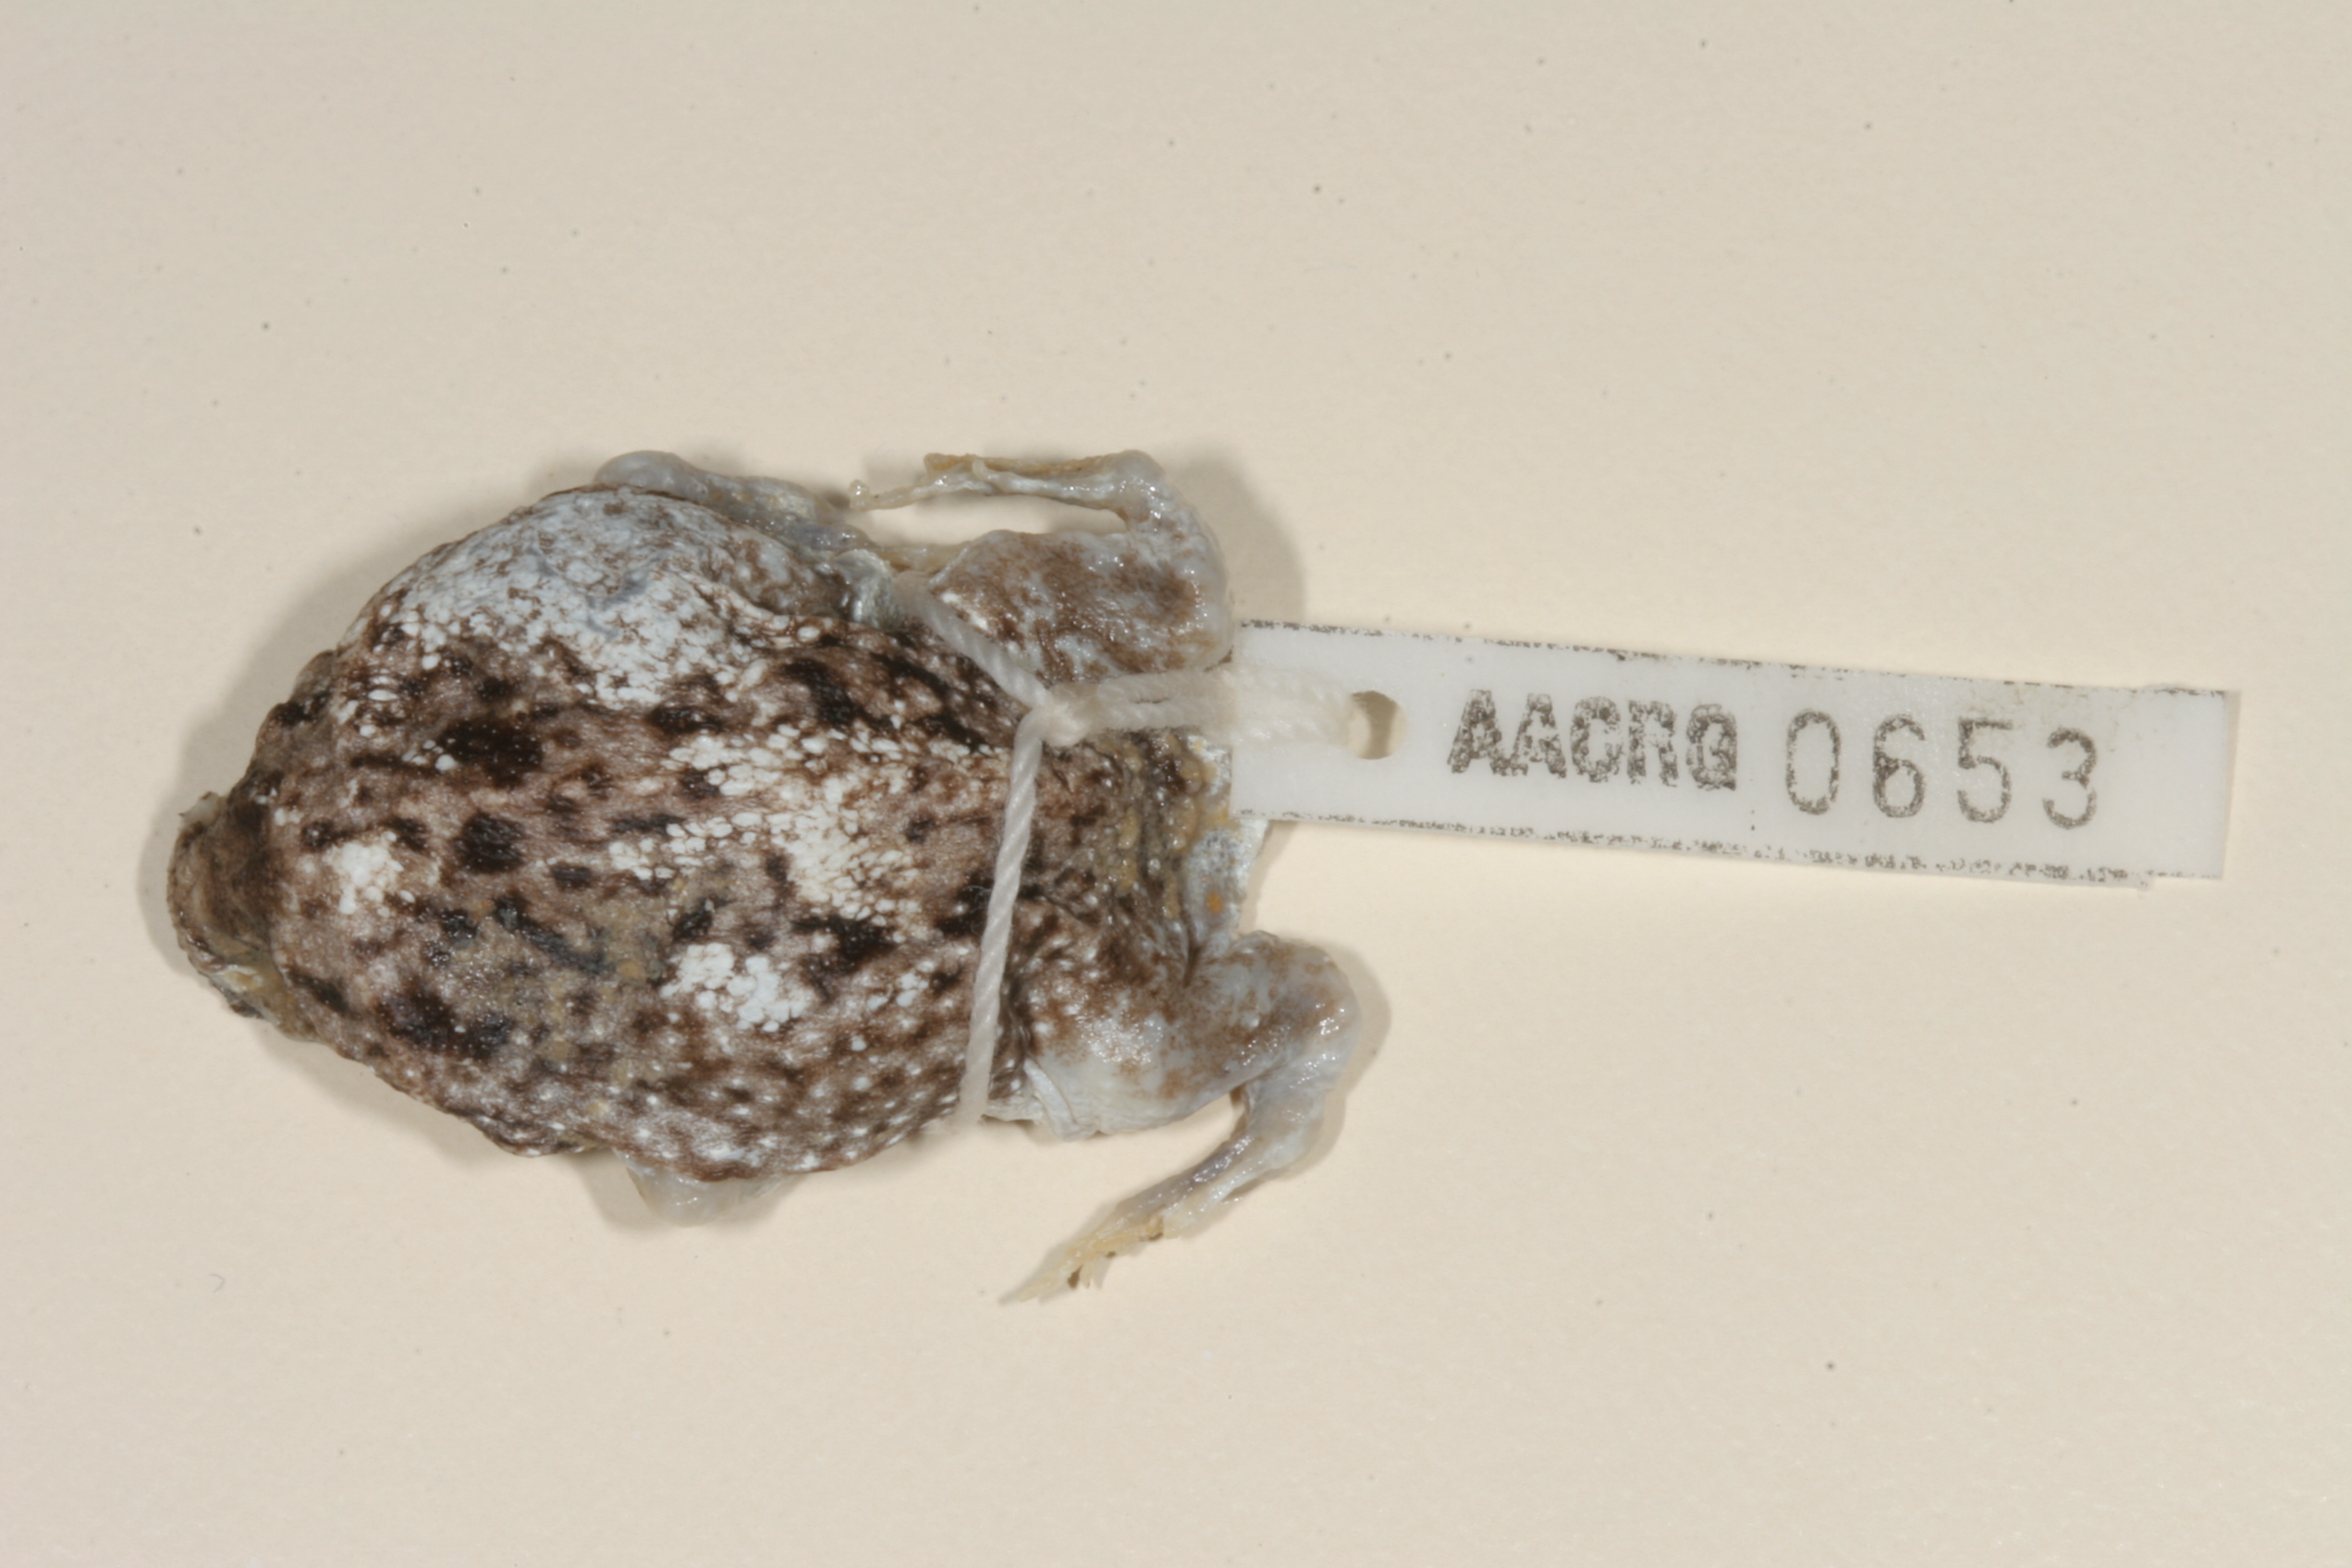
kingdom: Animalia
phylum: Chordata
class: Amphibia
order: Anura
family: Brevicipitidae
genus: Breviceps
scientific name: Breviceps macrops
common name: Melkpadda
